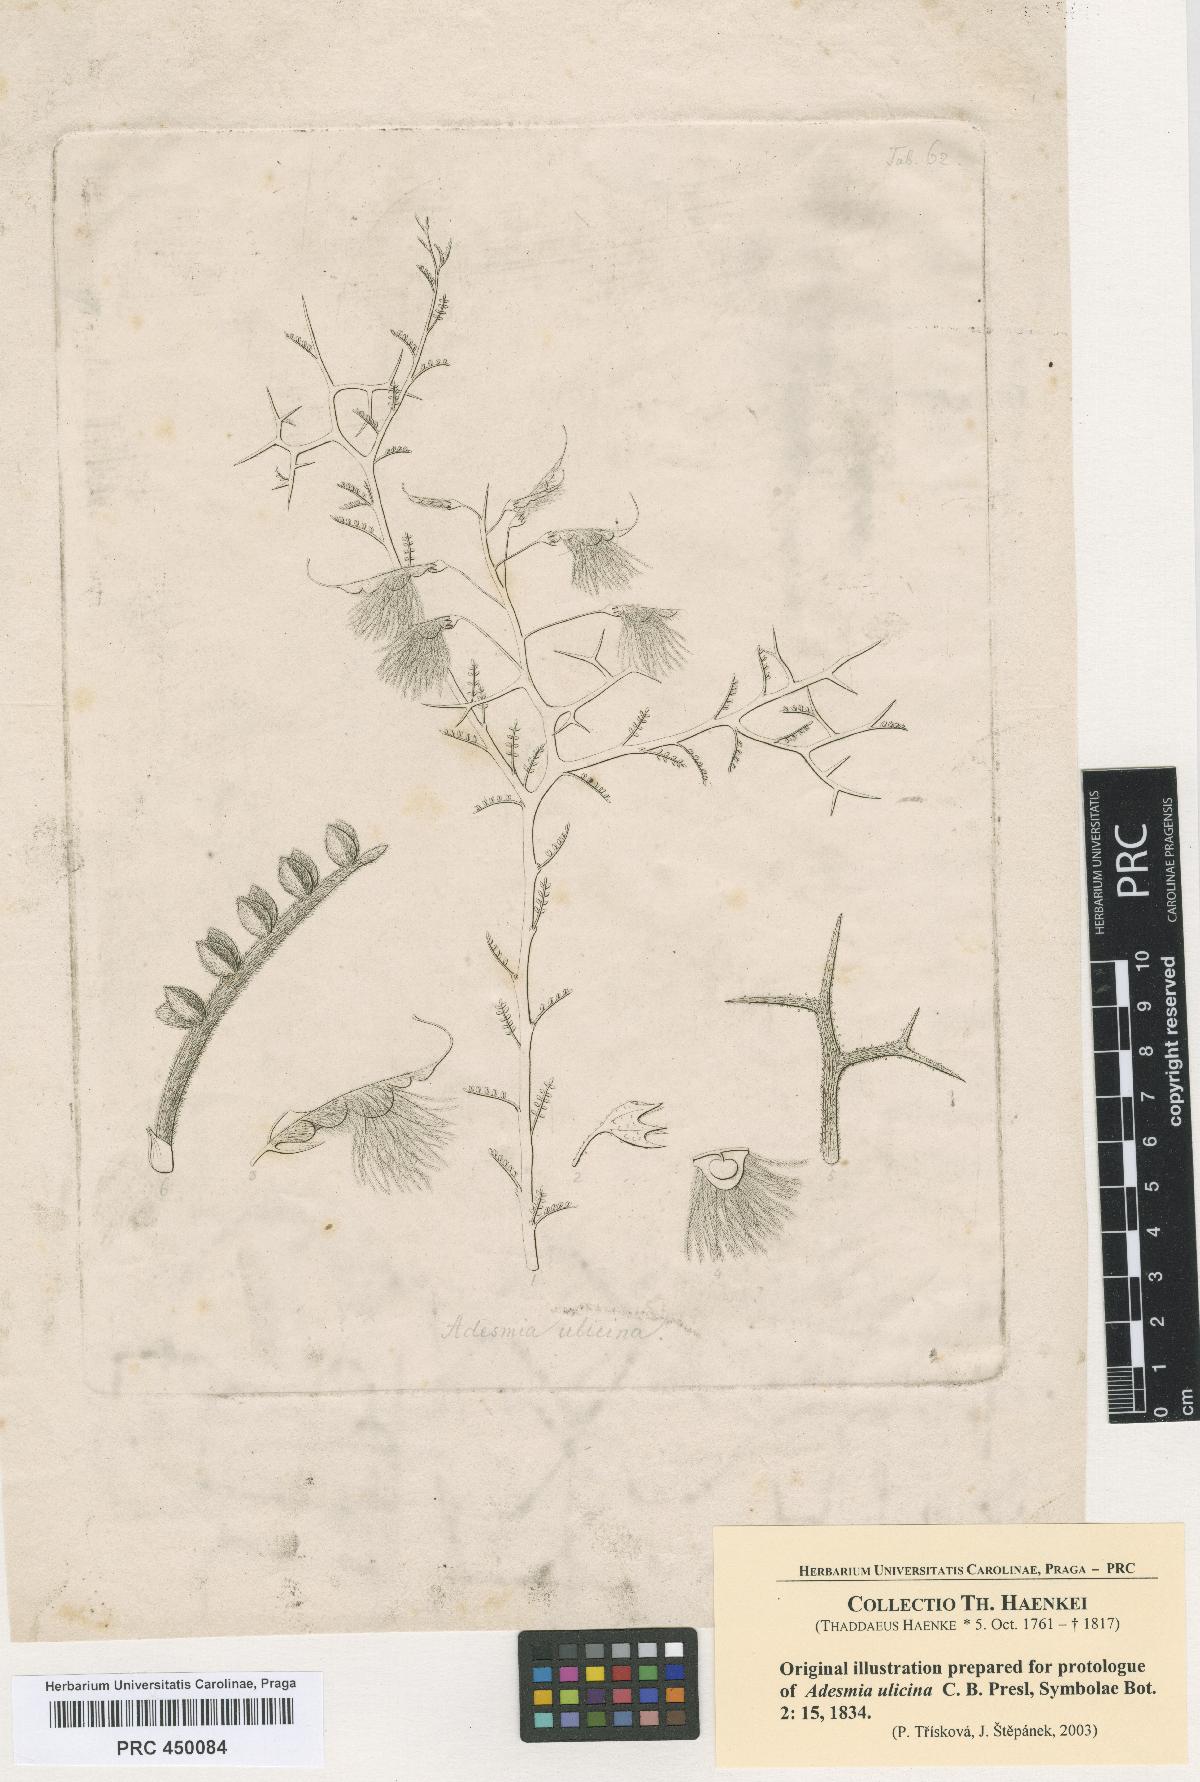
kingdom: Plantae
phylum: Tracheophyta
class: Magnoliopsida
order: Fabales
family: Fabaceae
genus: Adesmia
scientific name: Adesmia pedicellata
